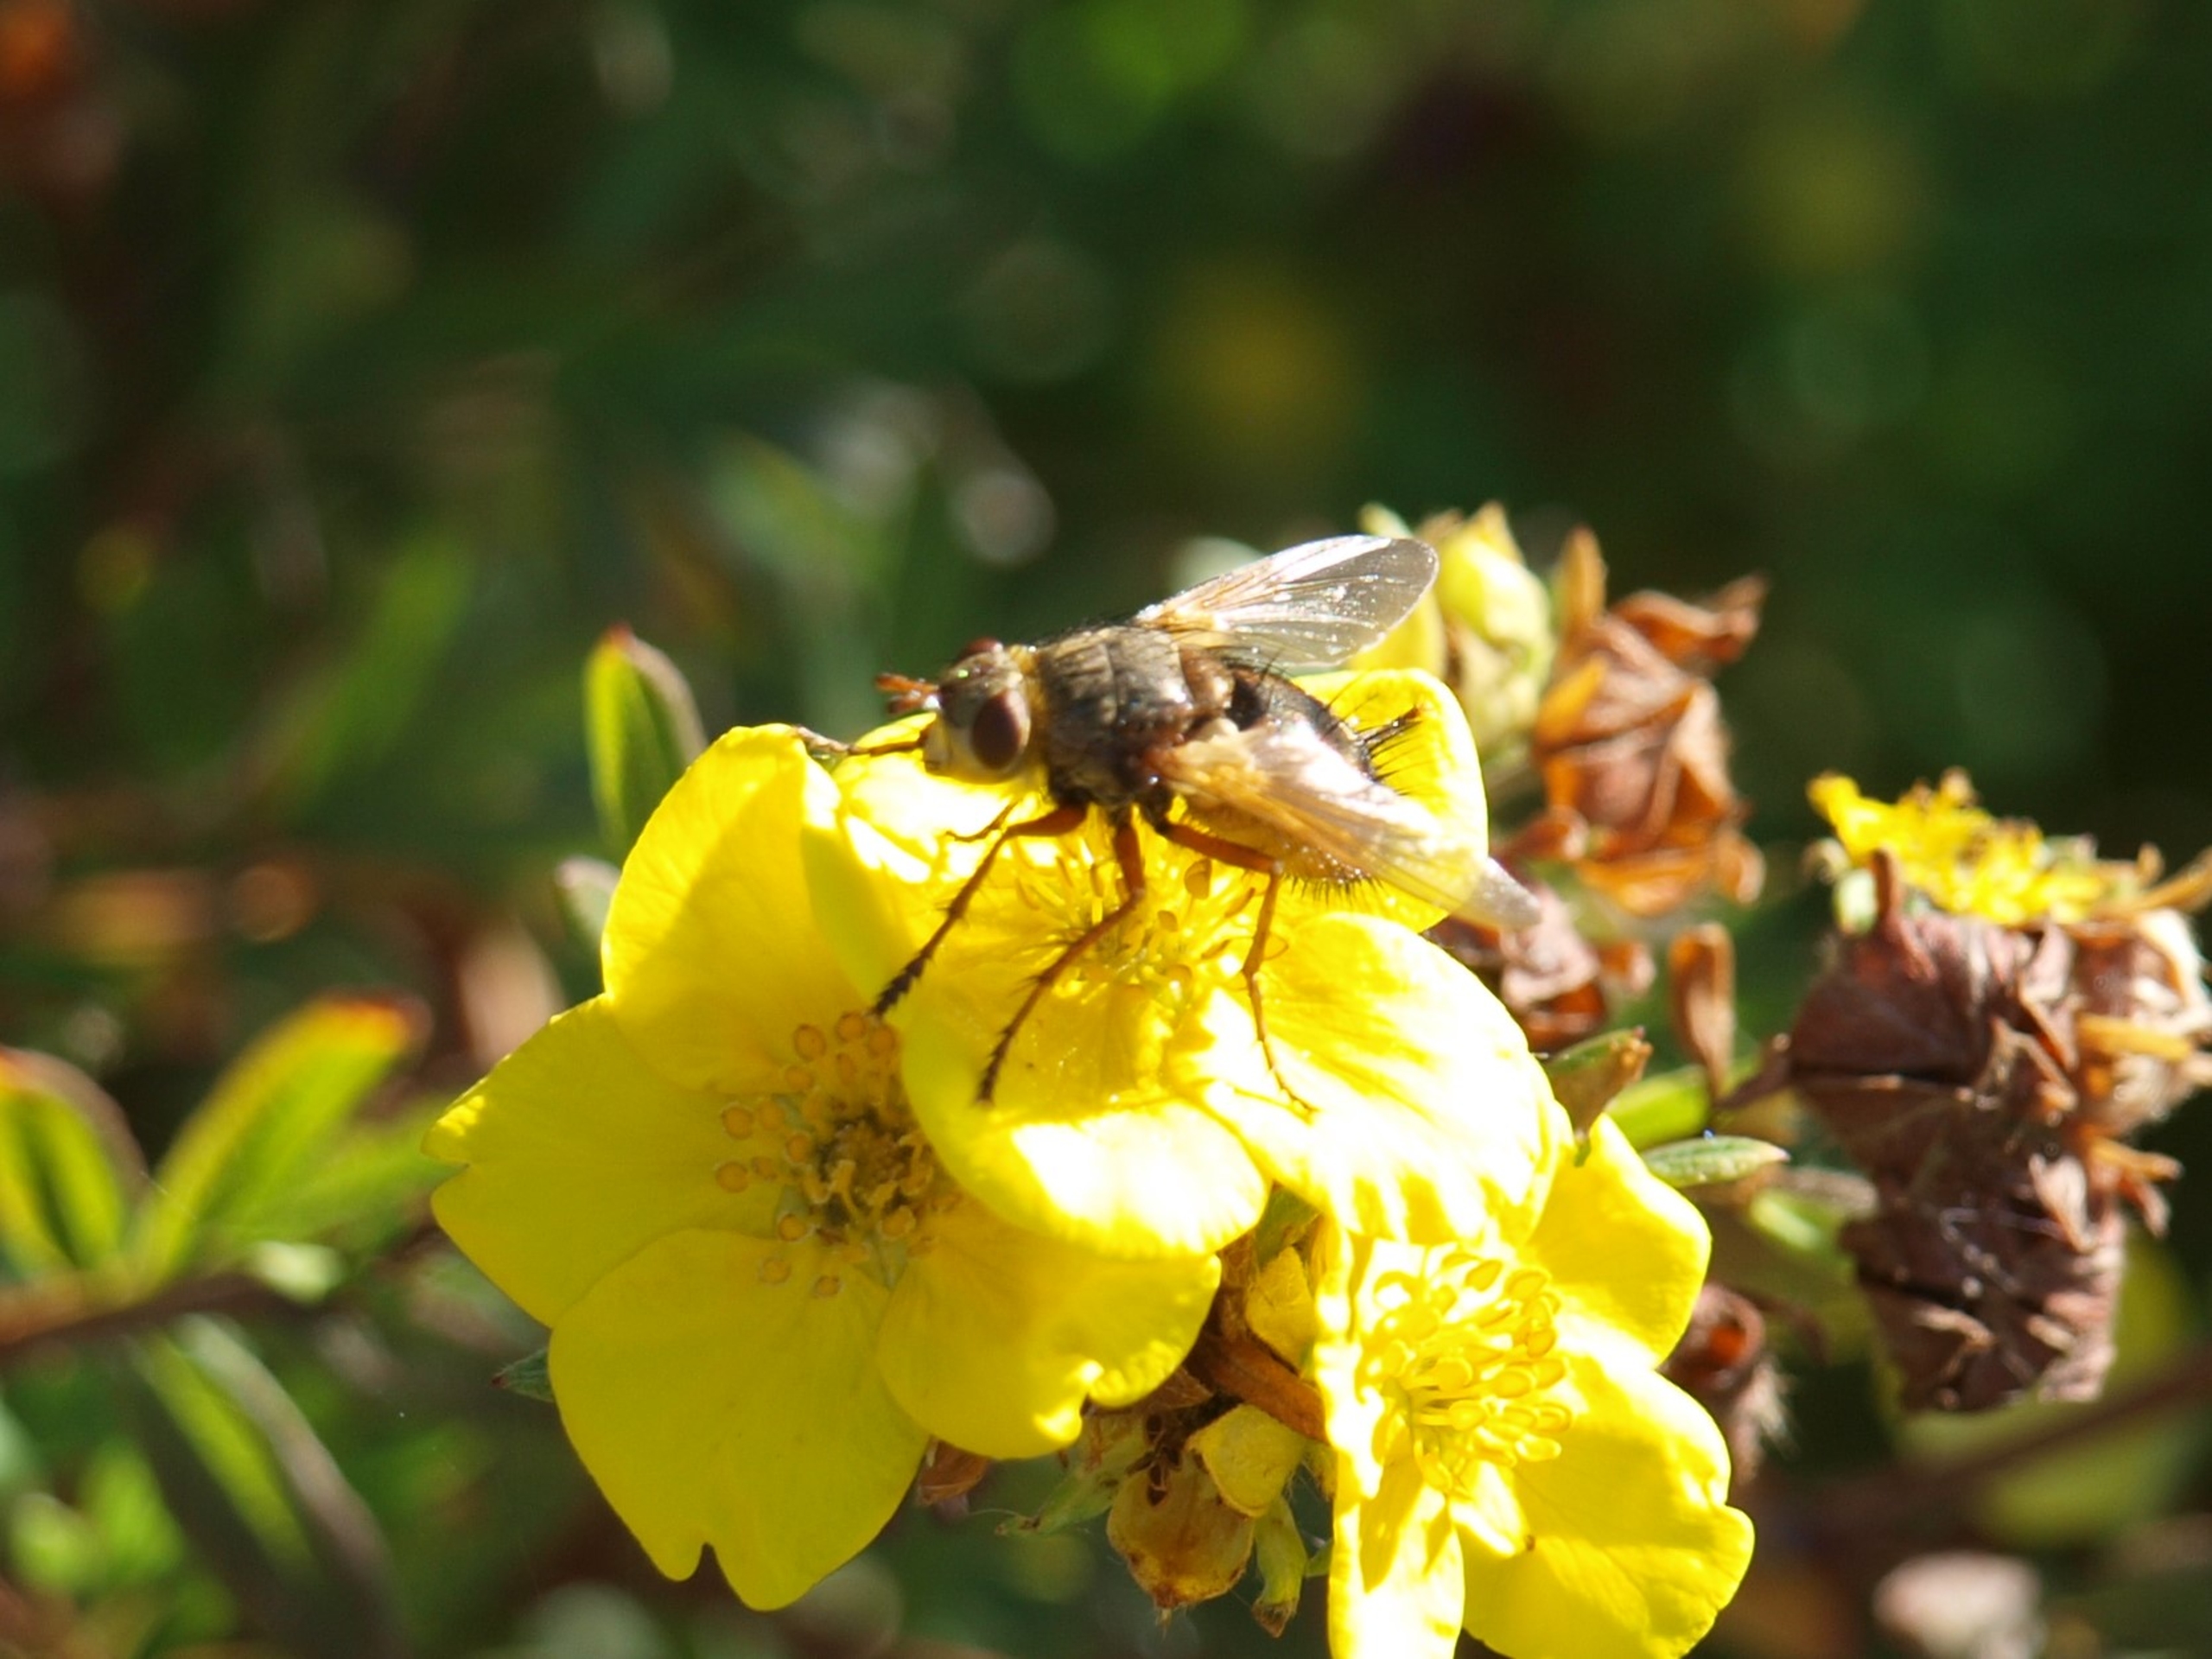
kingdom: Animalia
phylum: Arthropoda
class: Insecta
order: Diptera
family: Tachinidae
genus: Tachina
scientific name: Tachina fera
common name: Mellemfluen oskar
